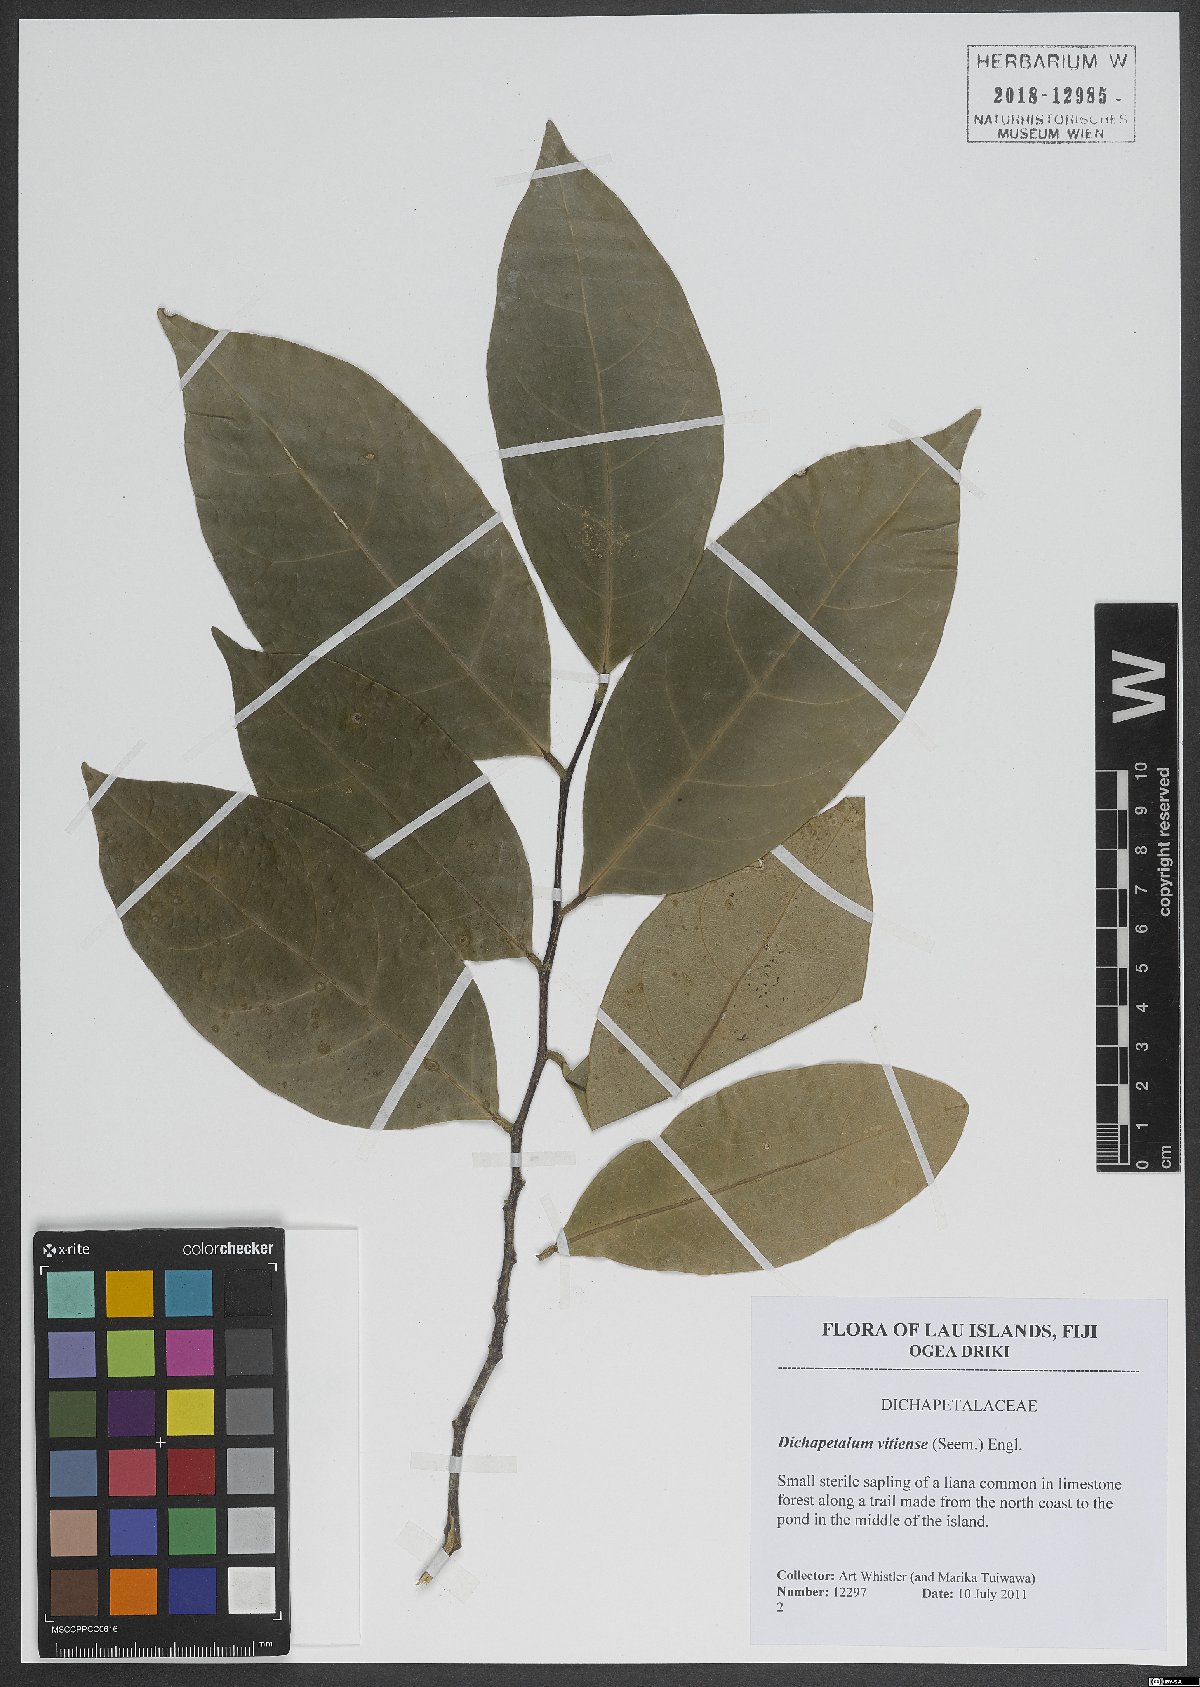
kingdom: Plantae
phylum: Tracheophyta
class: Magnoliopsida
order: Malpighiales
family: Dichapetalaceae
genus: Dichapetalum
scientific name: Dichapetalum vitiense
